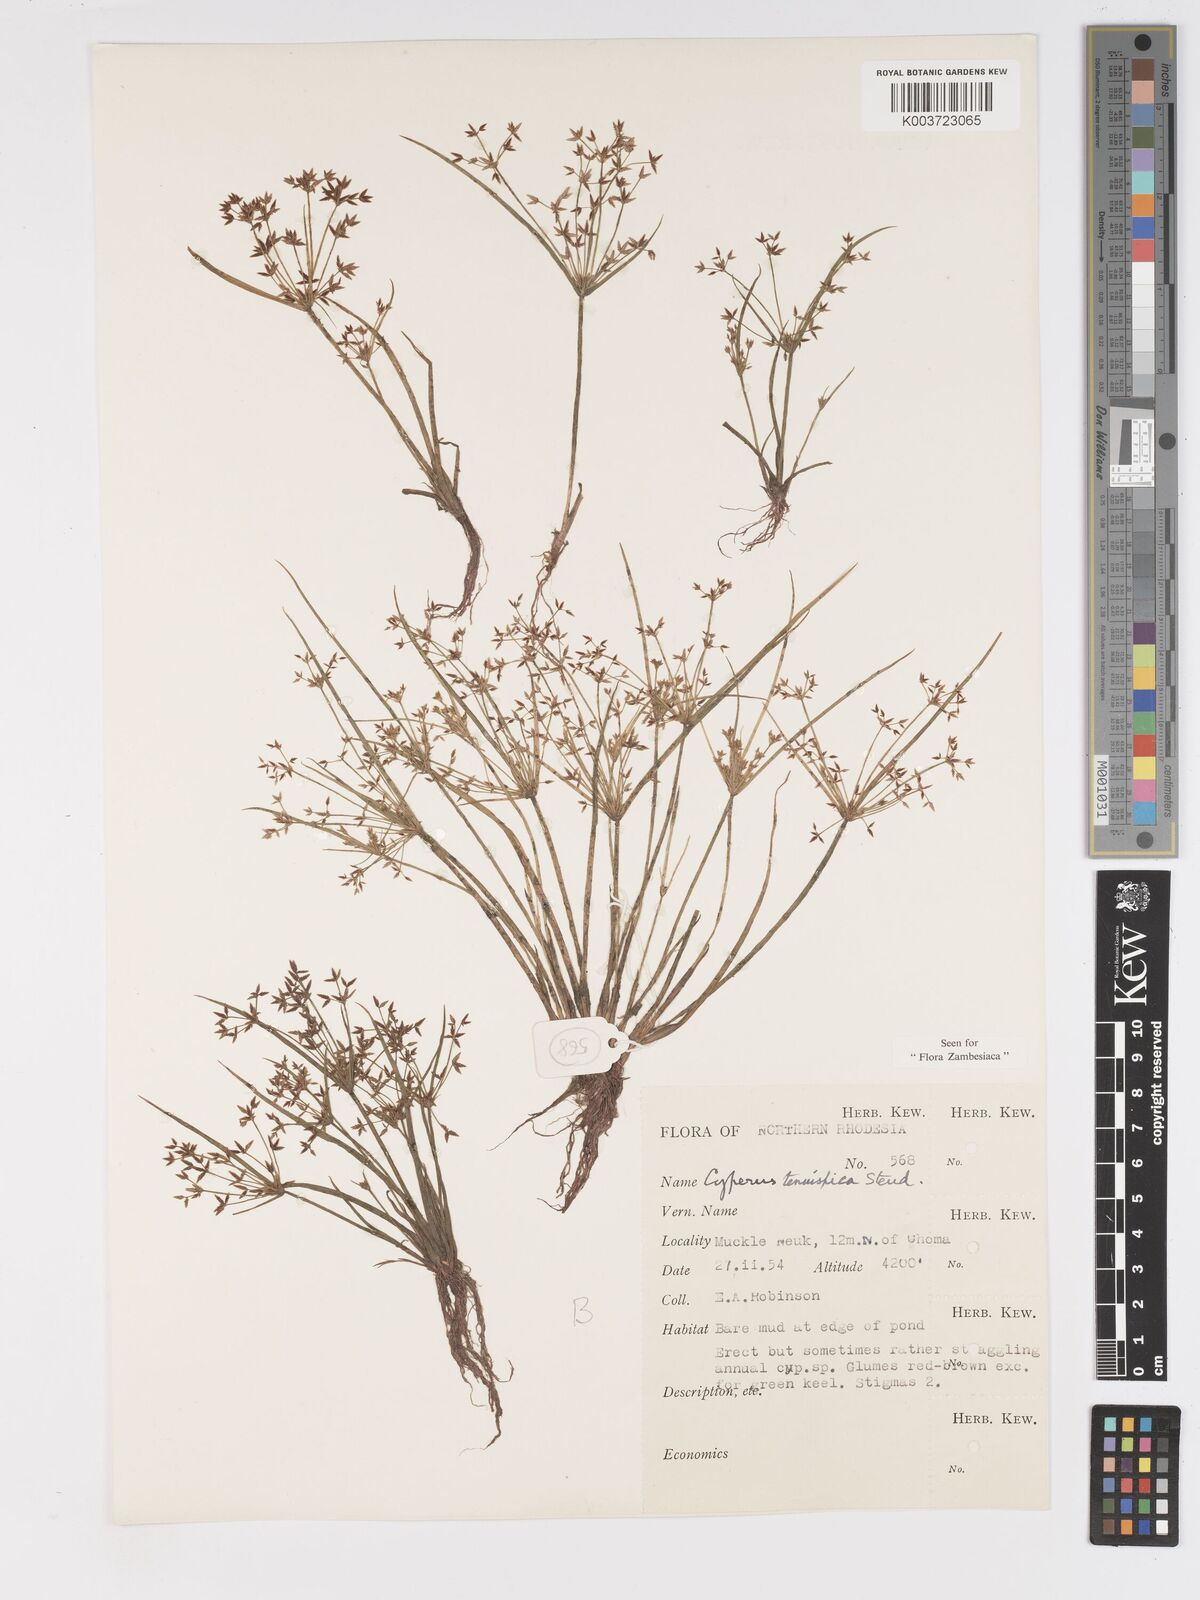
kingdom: Plantae
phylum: Tracheophyta
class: Liliopsida
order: Poales
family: Cyperaceae
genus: Cyperus
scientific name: Cyperus tenuispica
